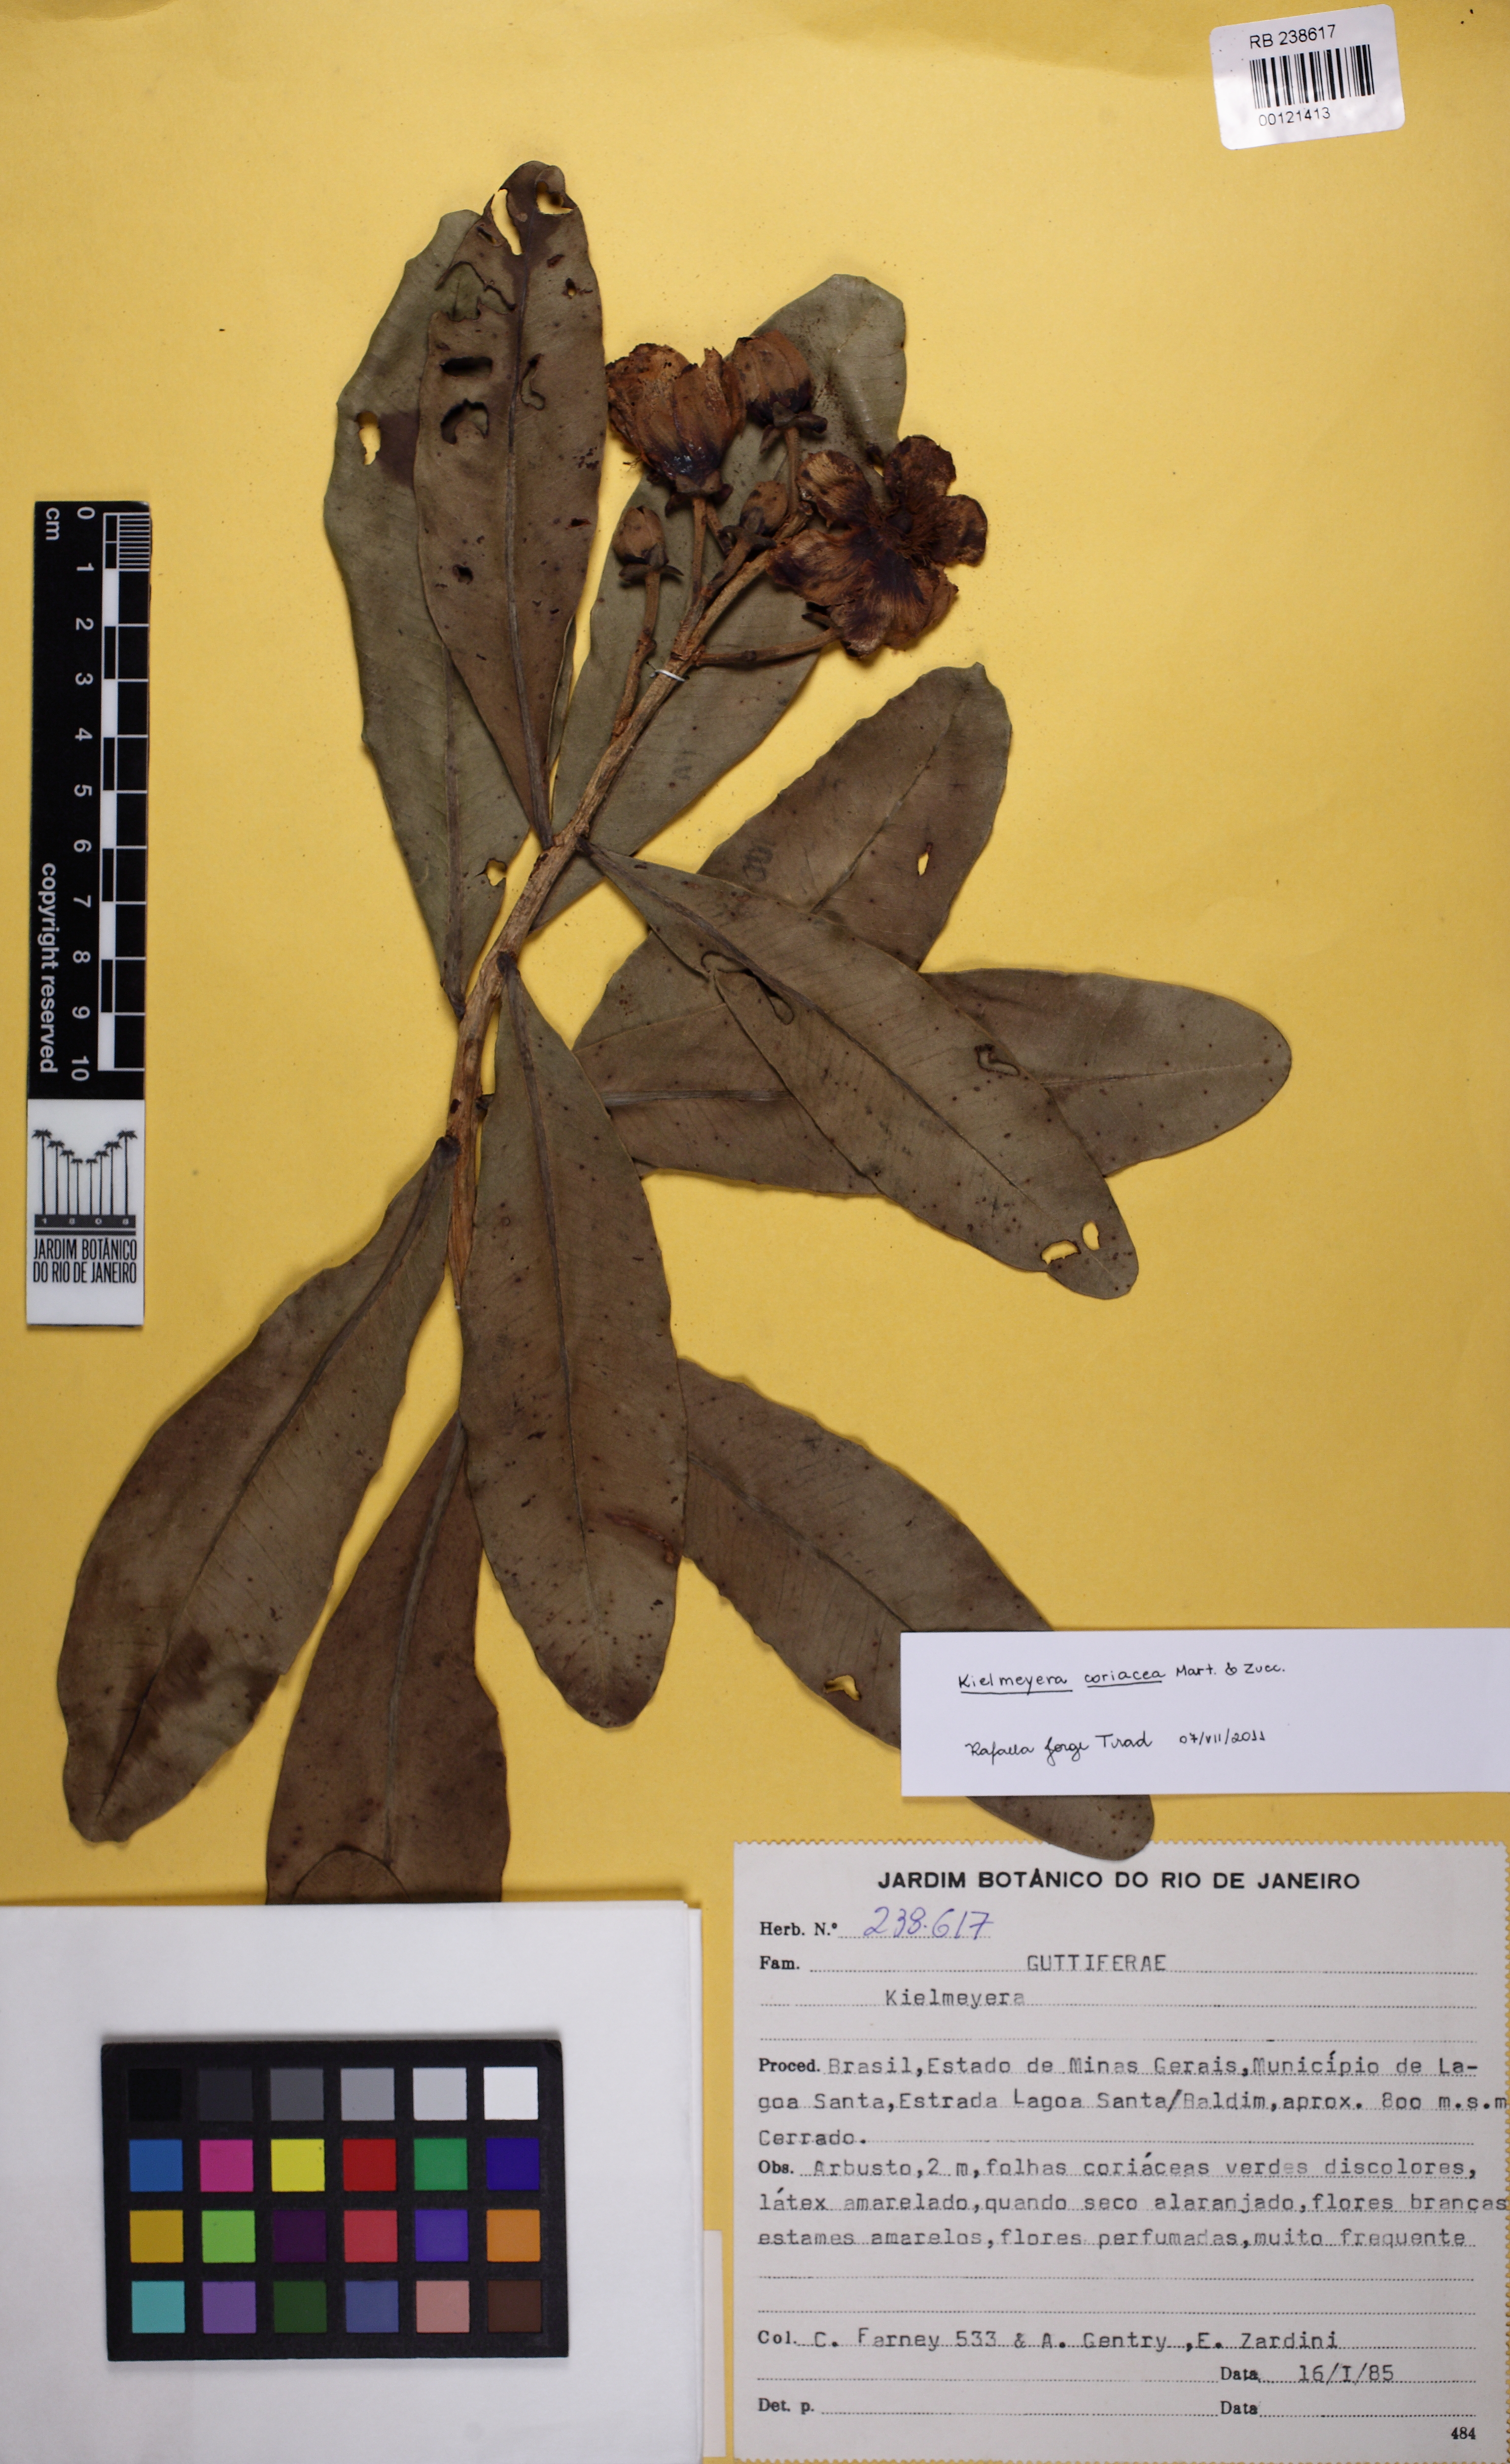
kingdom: Plantae
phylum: Tracheophyta
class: Magnoliopsida
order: Malpighiales
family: Calophyllaceae
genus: Kielmeyera
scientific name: Kielmeyera coriacea
